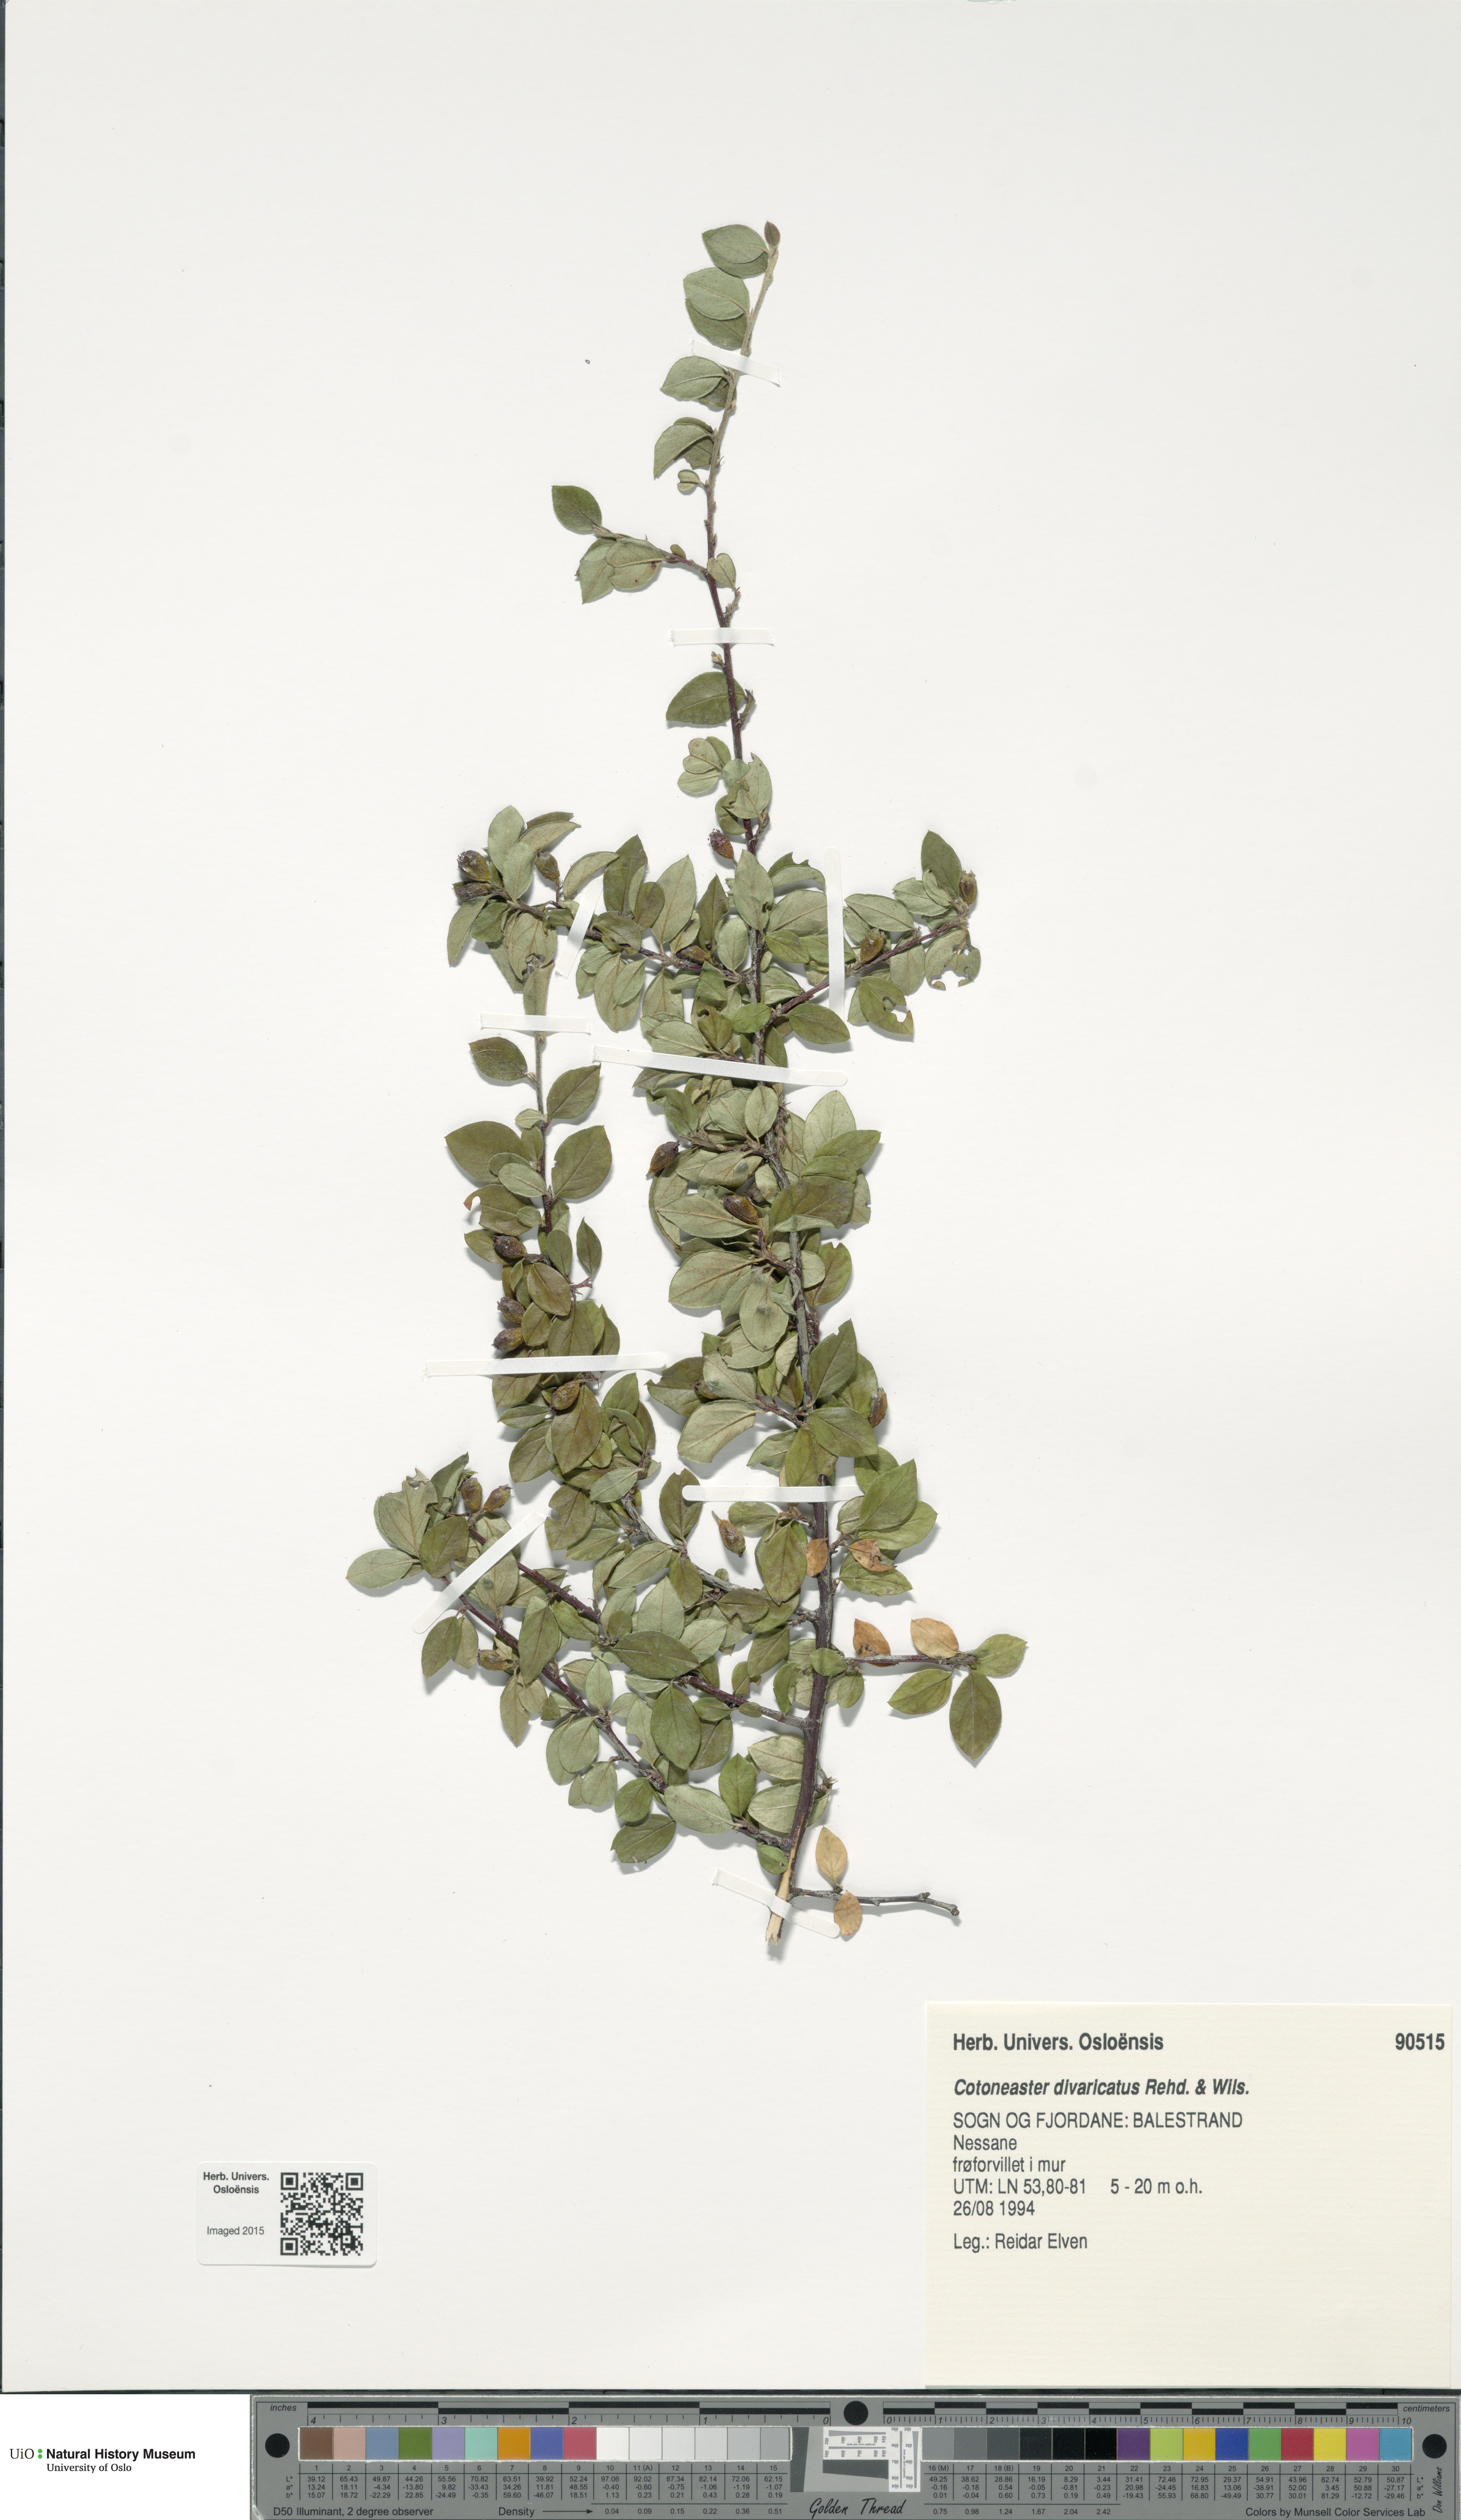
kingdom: Plantae
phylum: Tracheophyta
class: Magnoliopsida
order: Rosales
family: Rosaceae
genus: Cotoneaster
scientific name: Cotoneaster divaricatus
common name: Spreading cotoneaster
